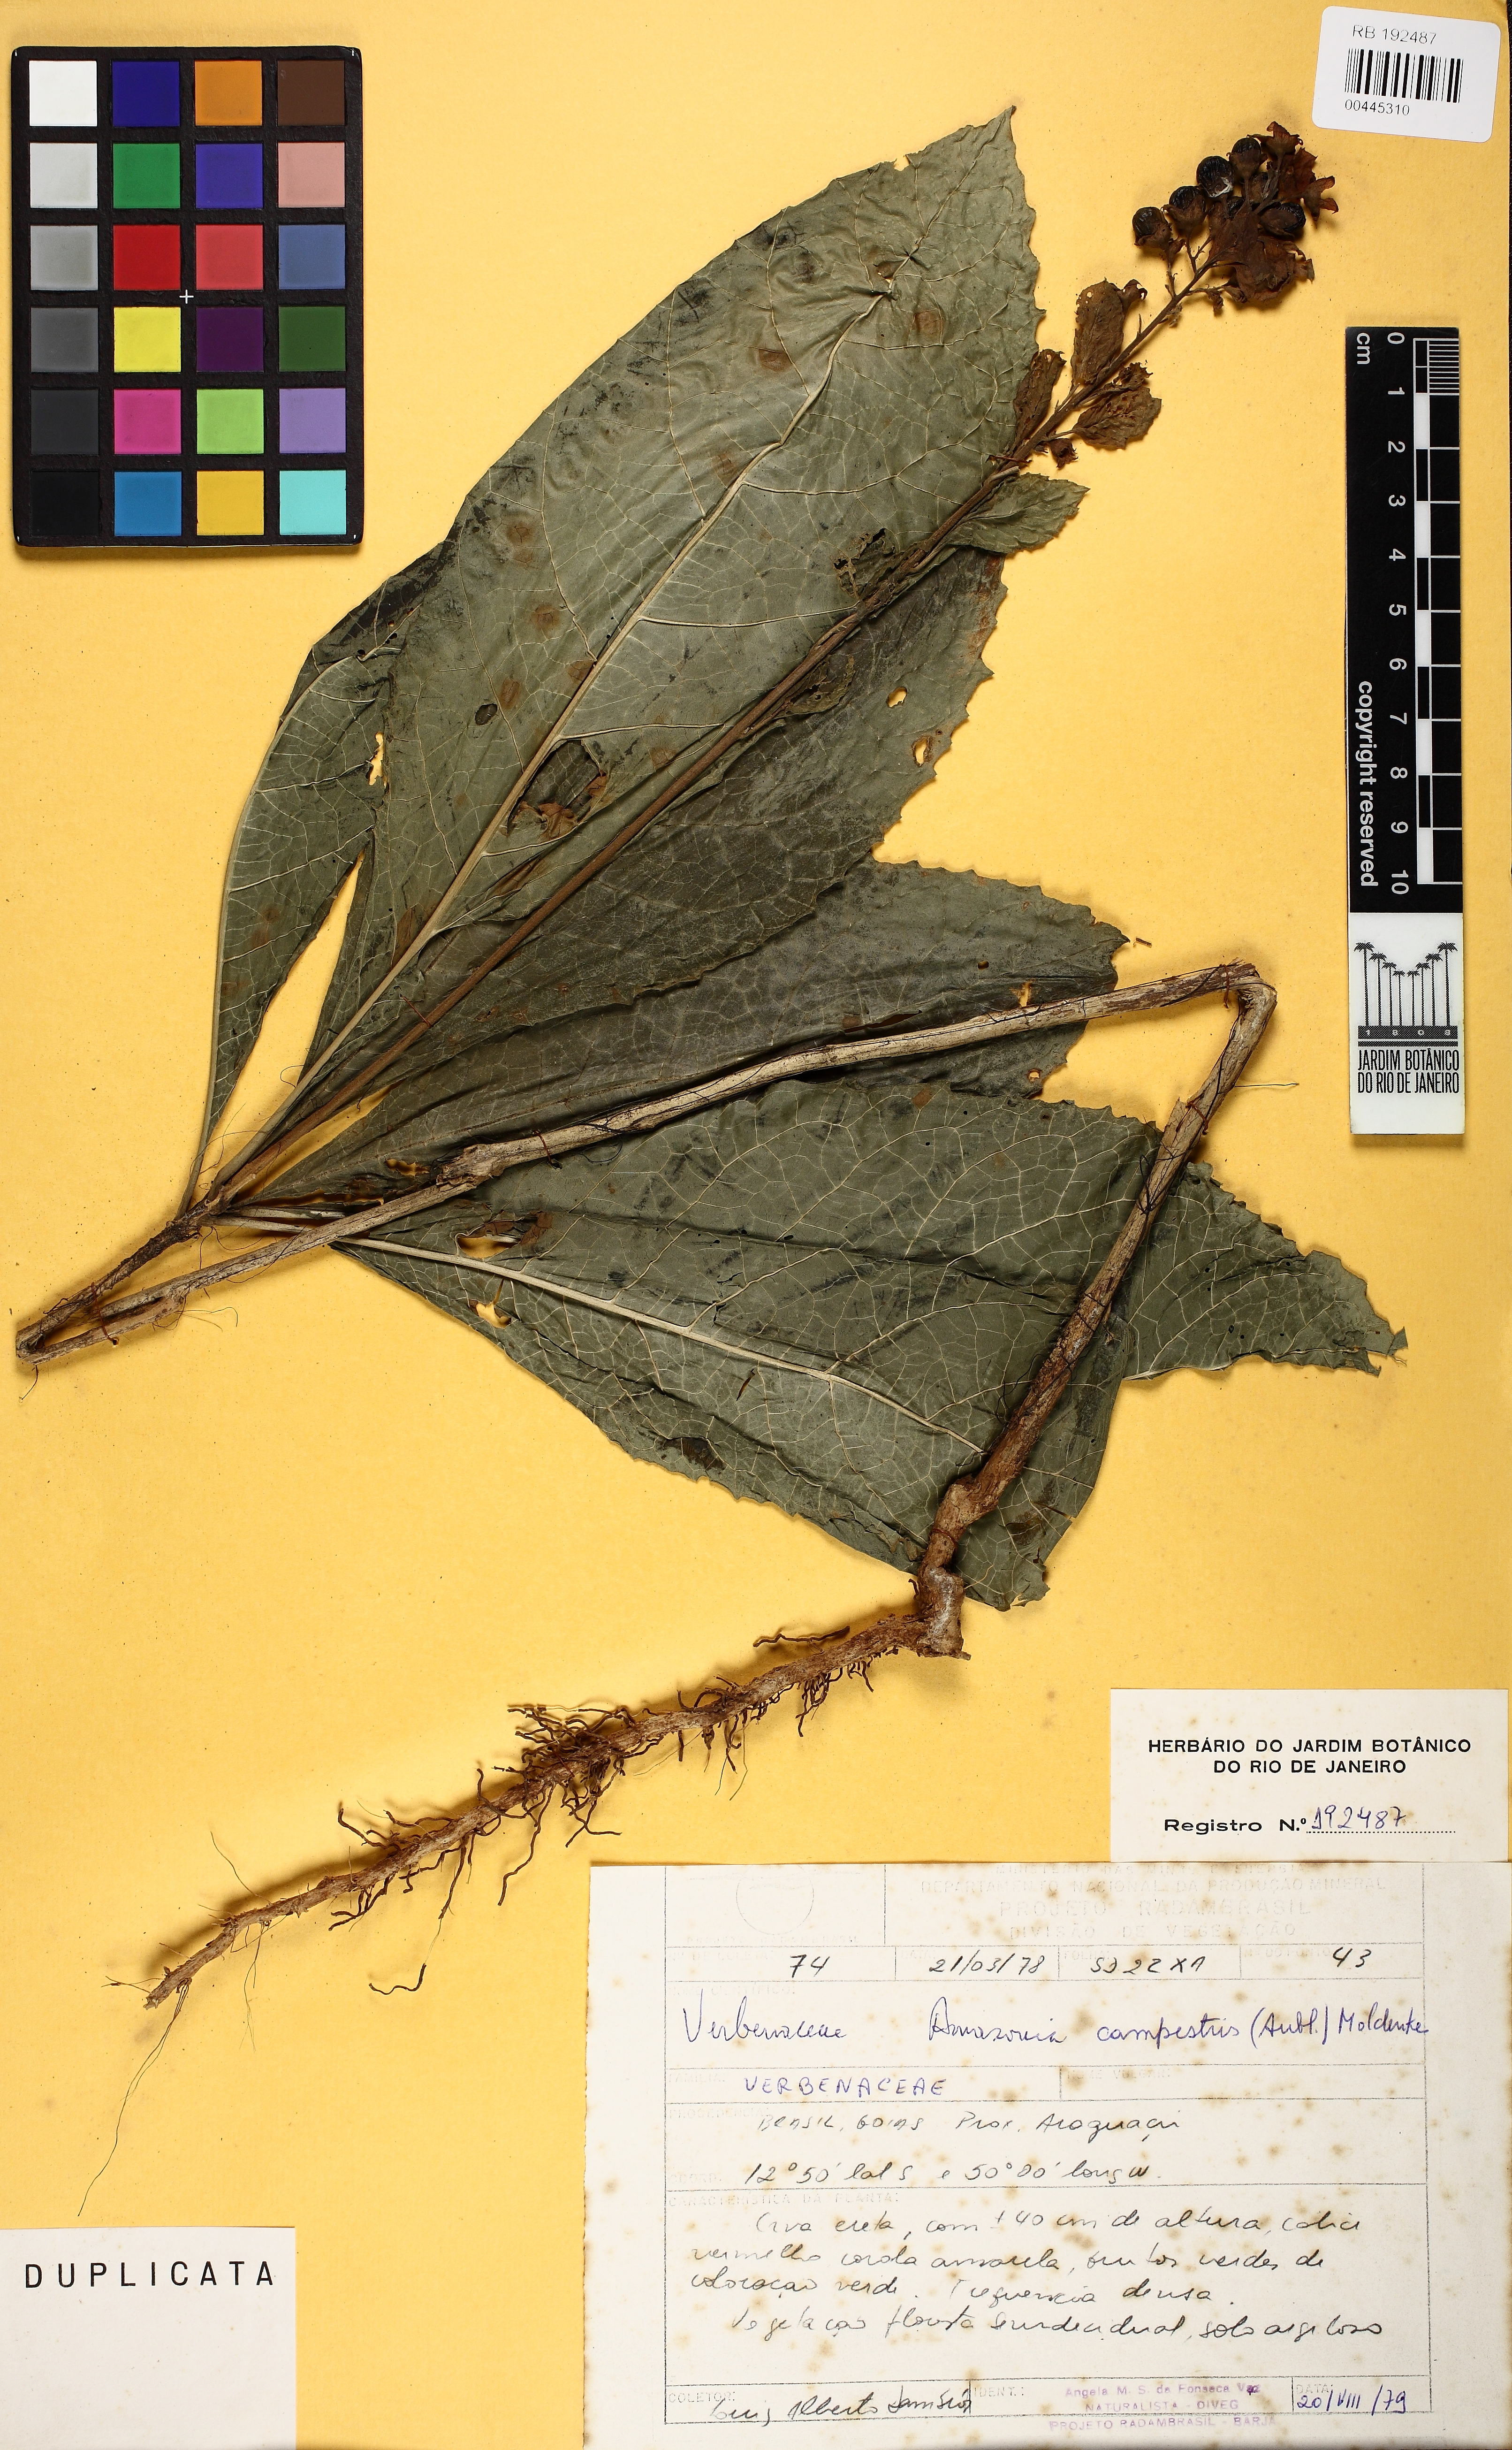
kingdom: Plantae
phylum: Tracheophyta
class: Magnoliopsida
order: Lamiales
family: Lamiaceae
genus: Amasonia
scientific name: Amasonia campestris
